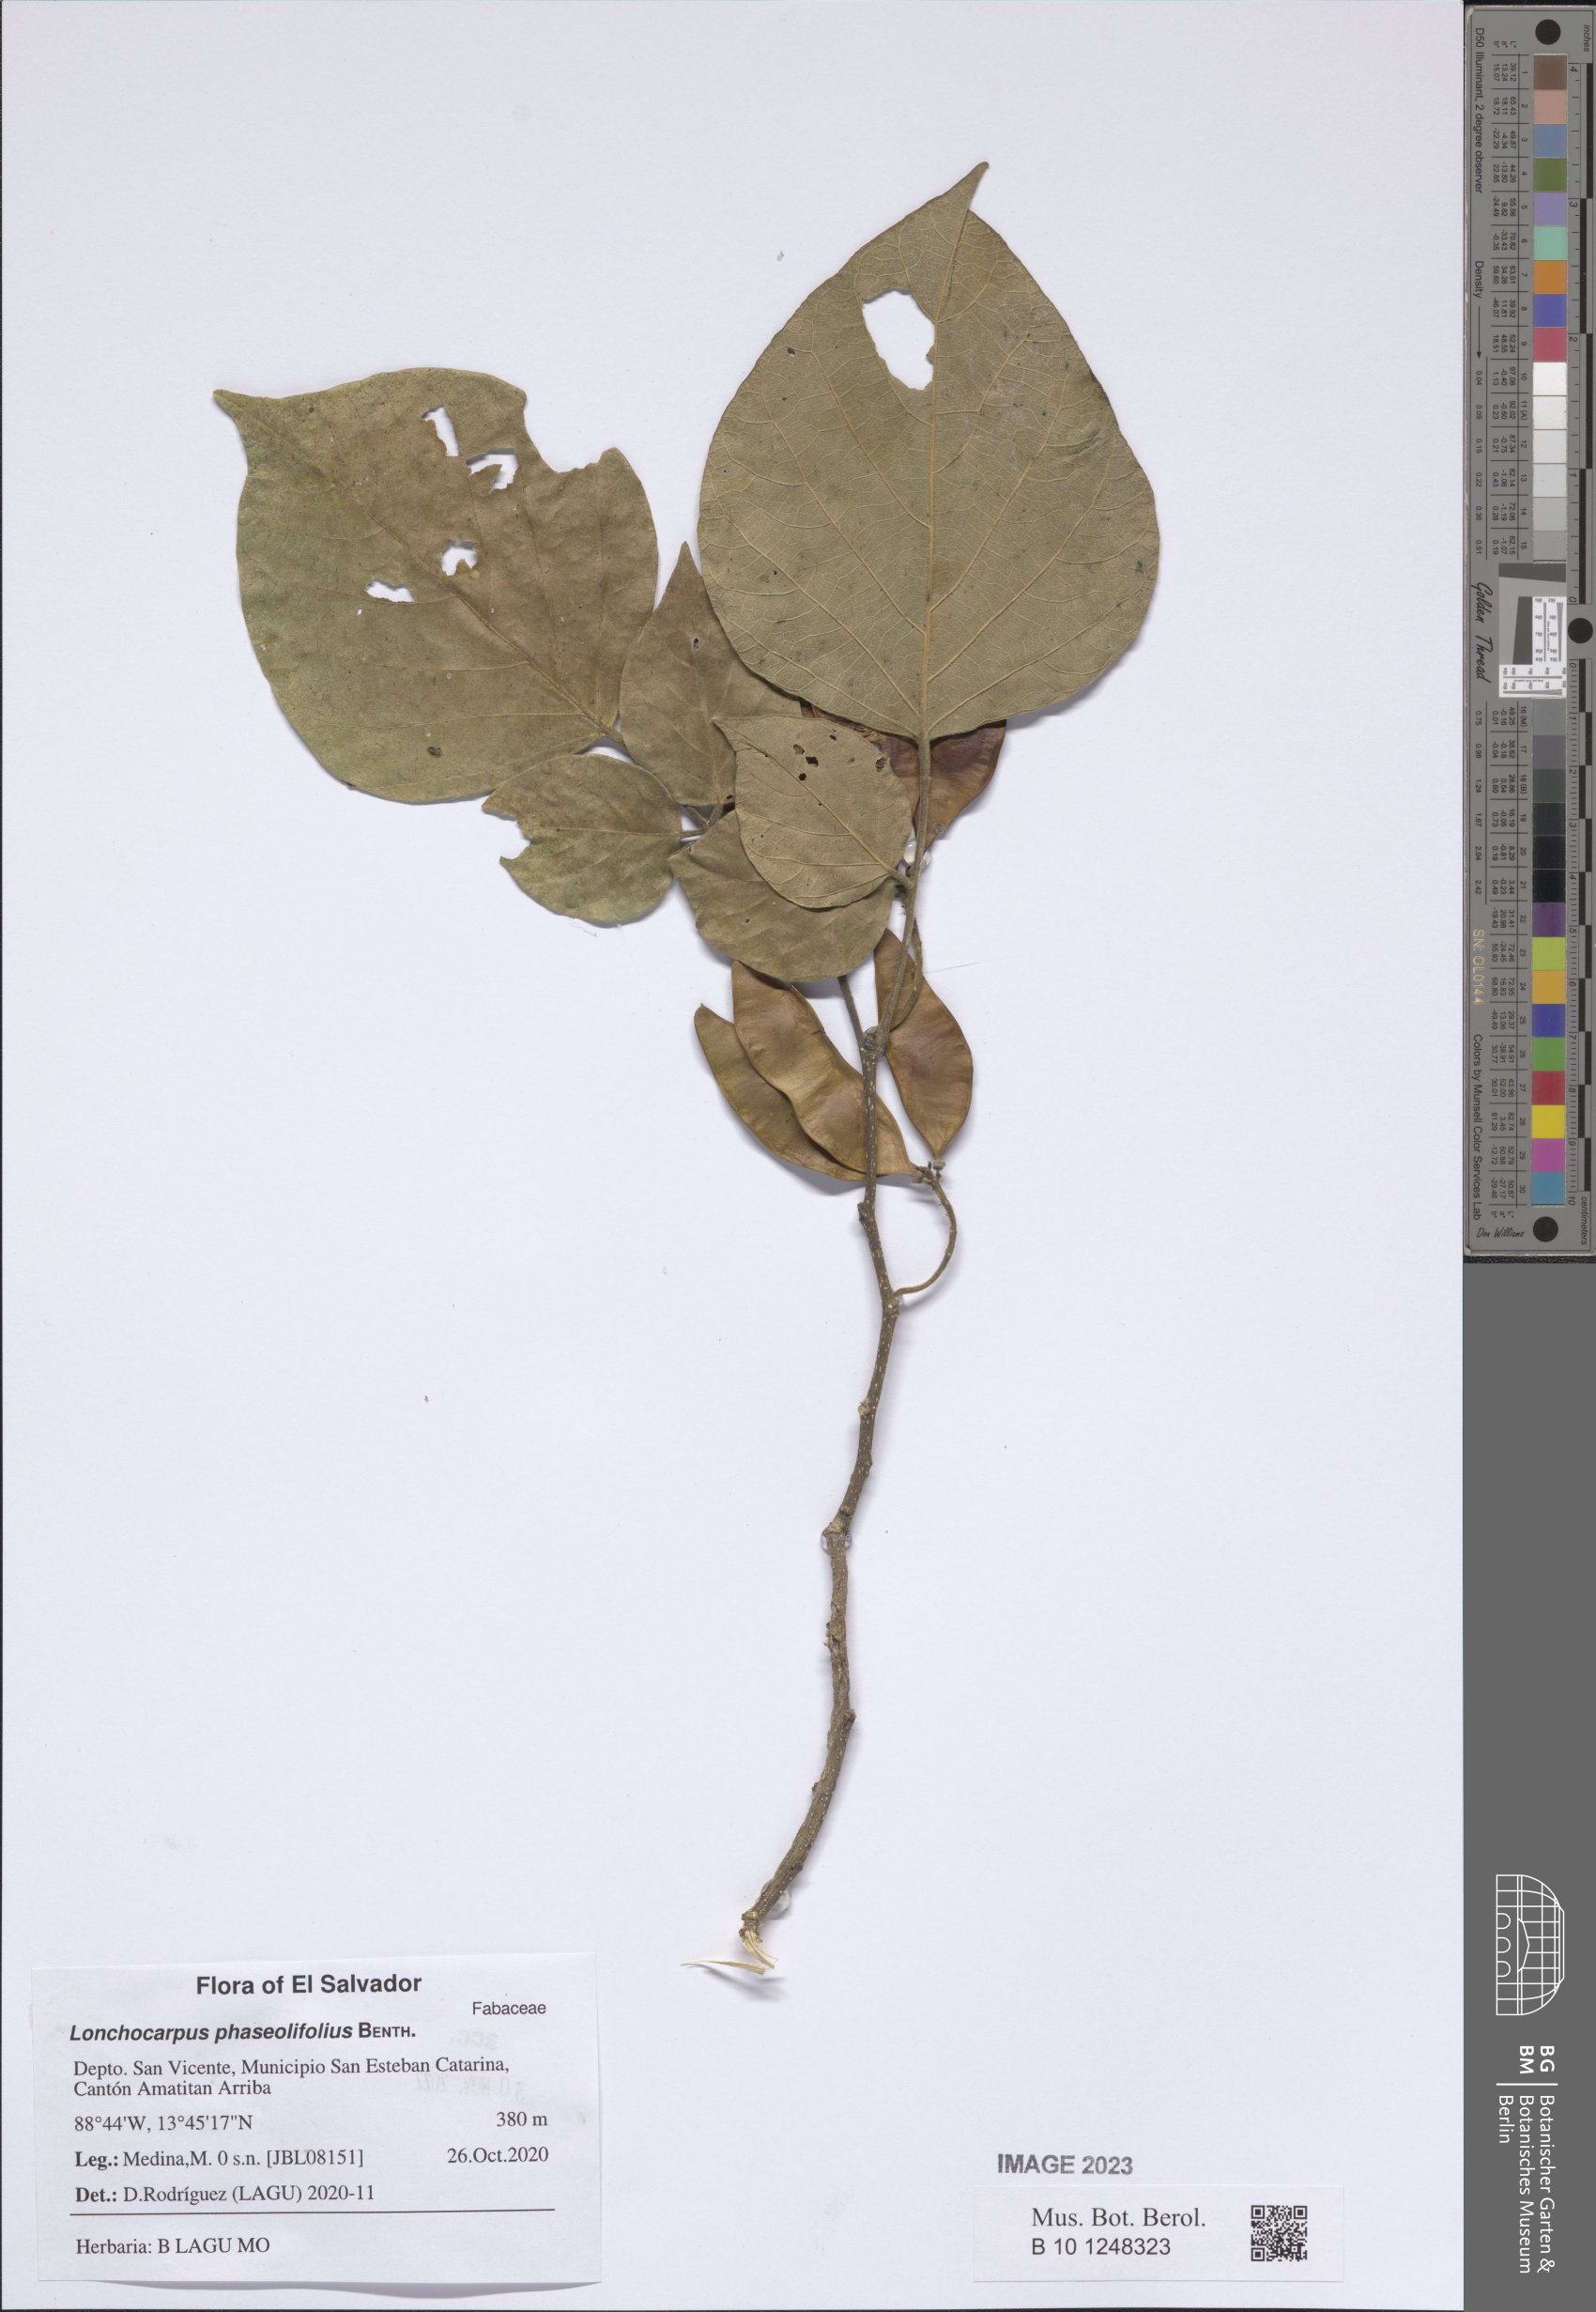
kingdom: Plantae
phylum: Tracheophyta
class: Magnoliopsida
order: Fabales
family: Fabaceae
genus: Lonchocarpus
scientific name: Lonchocarpus phaseolifolius
